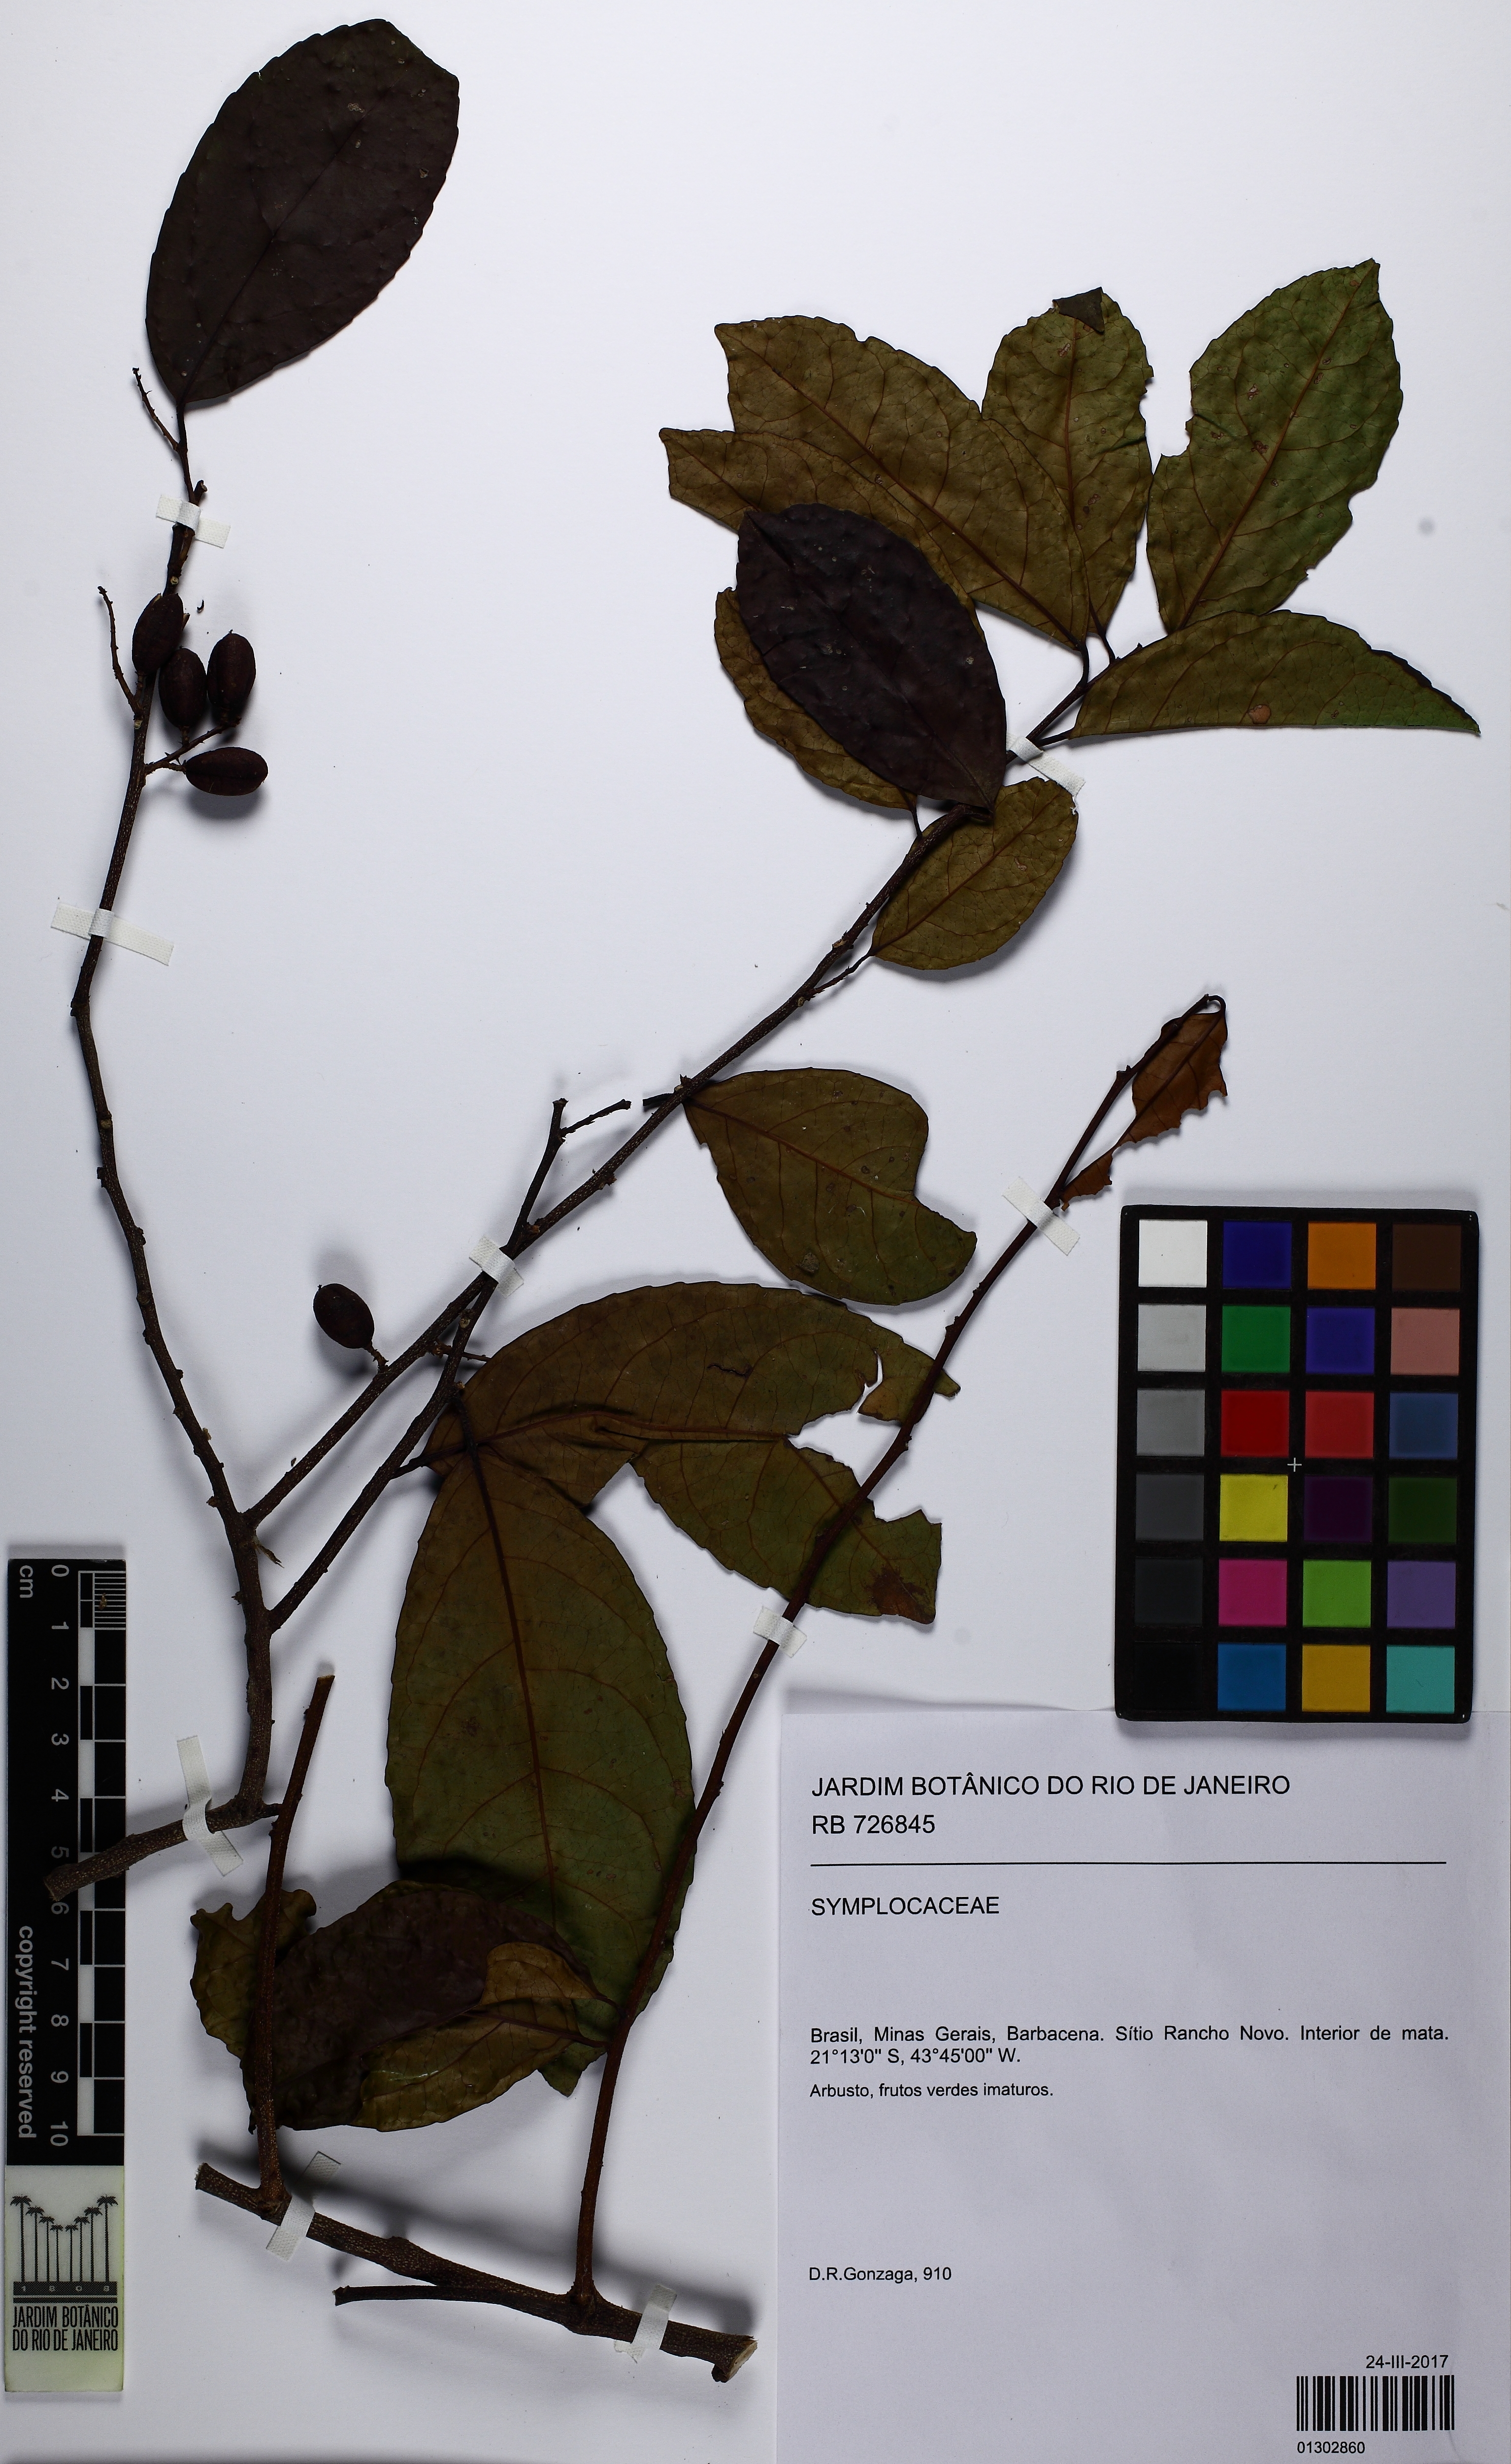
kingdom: Plantae
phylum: Tracheophyta
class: Magnoliopsida
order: Ericales
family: Symplocaceae
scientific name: Symplocaceae
